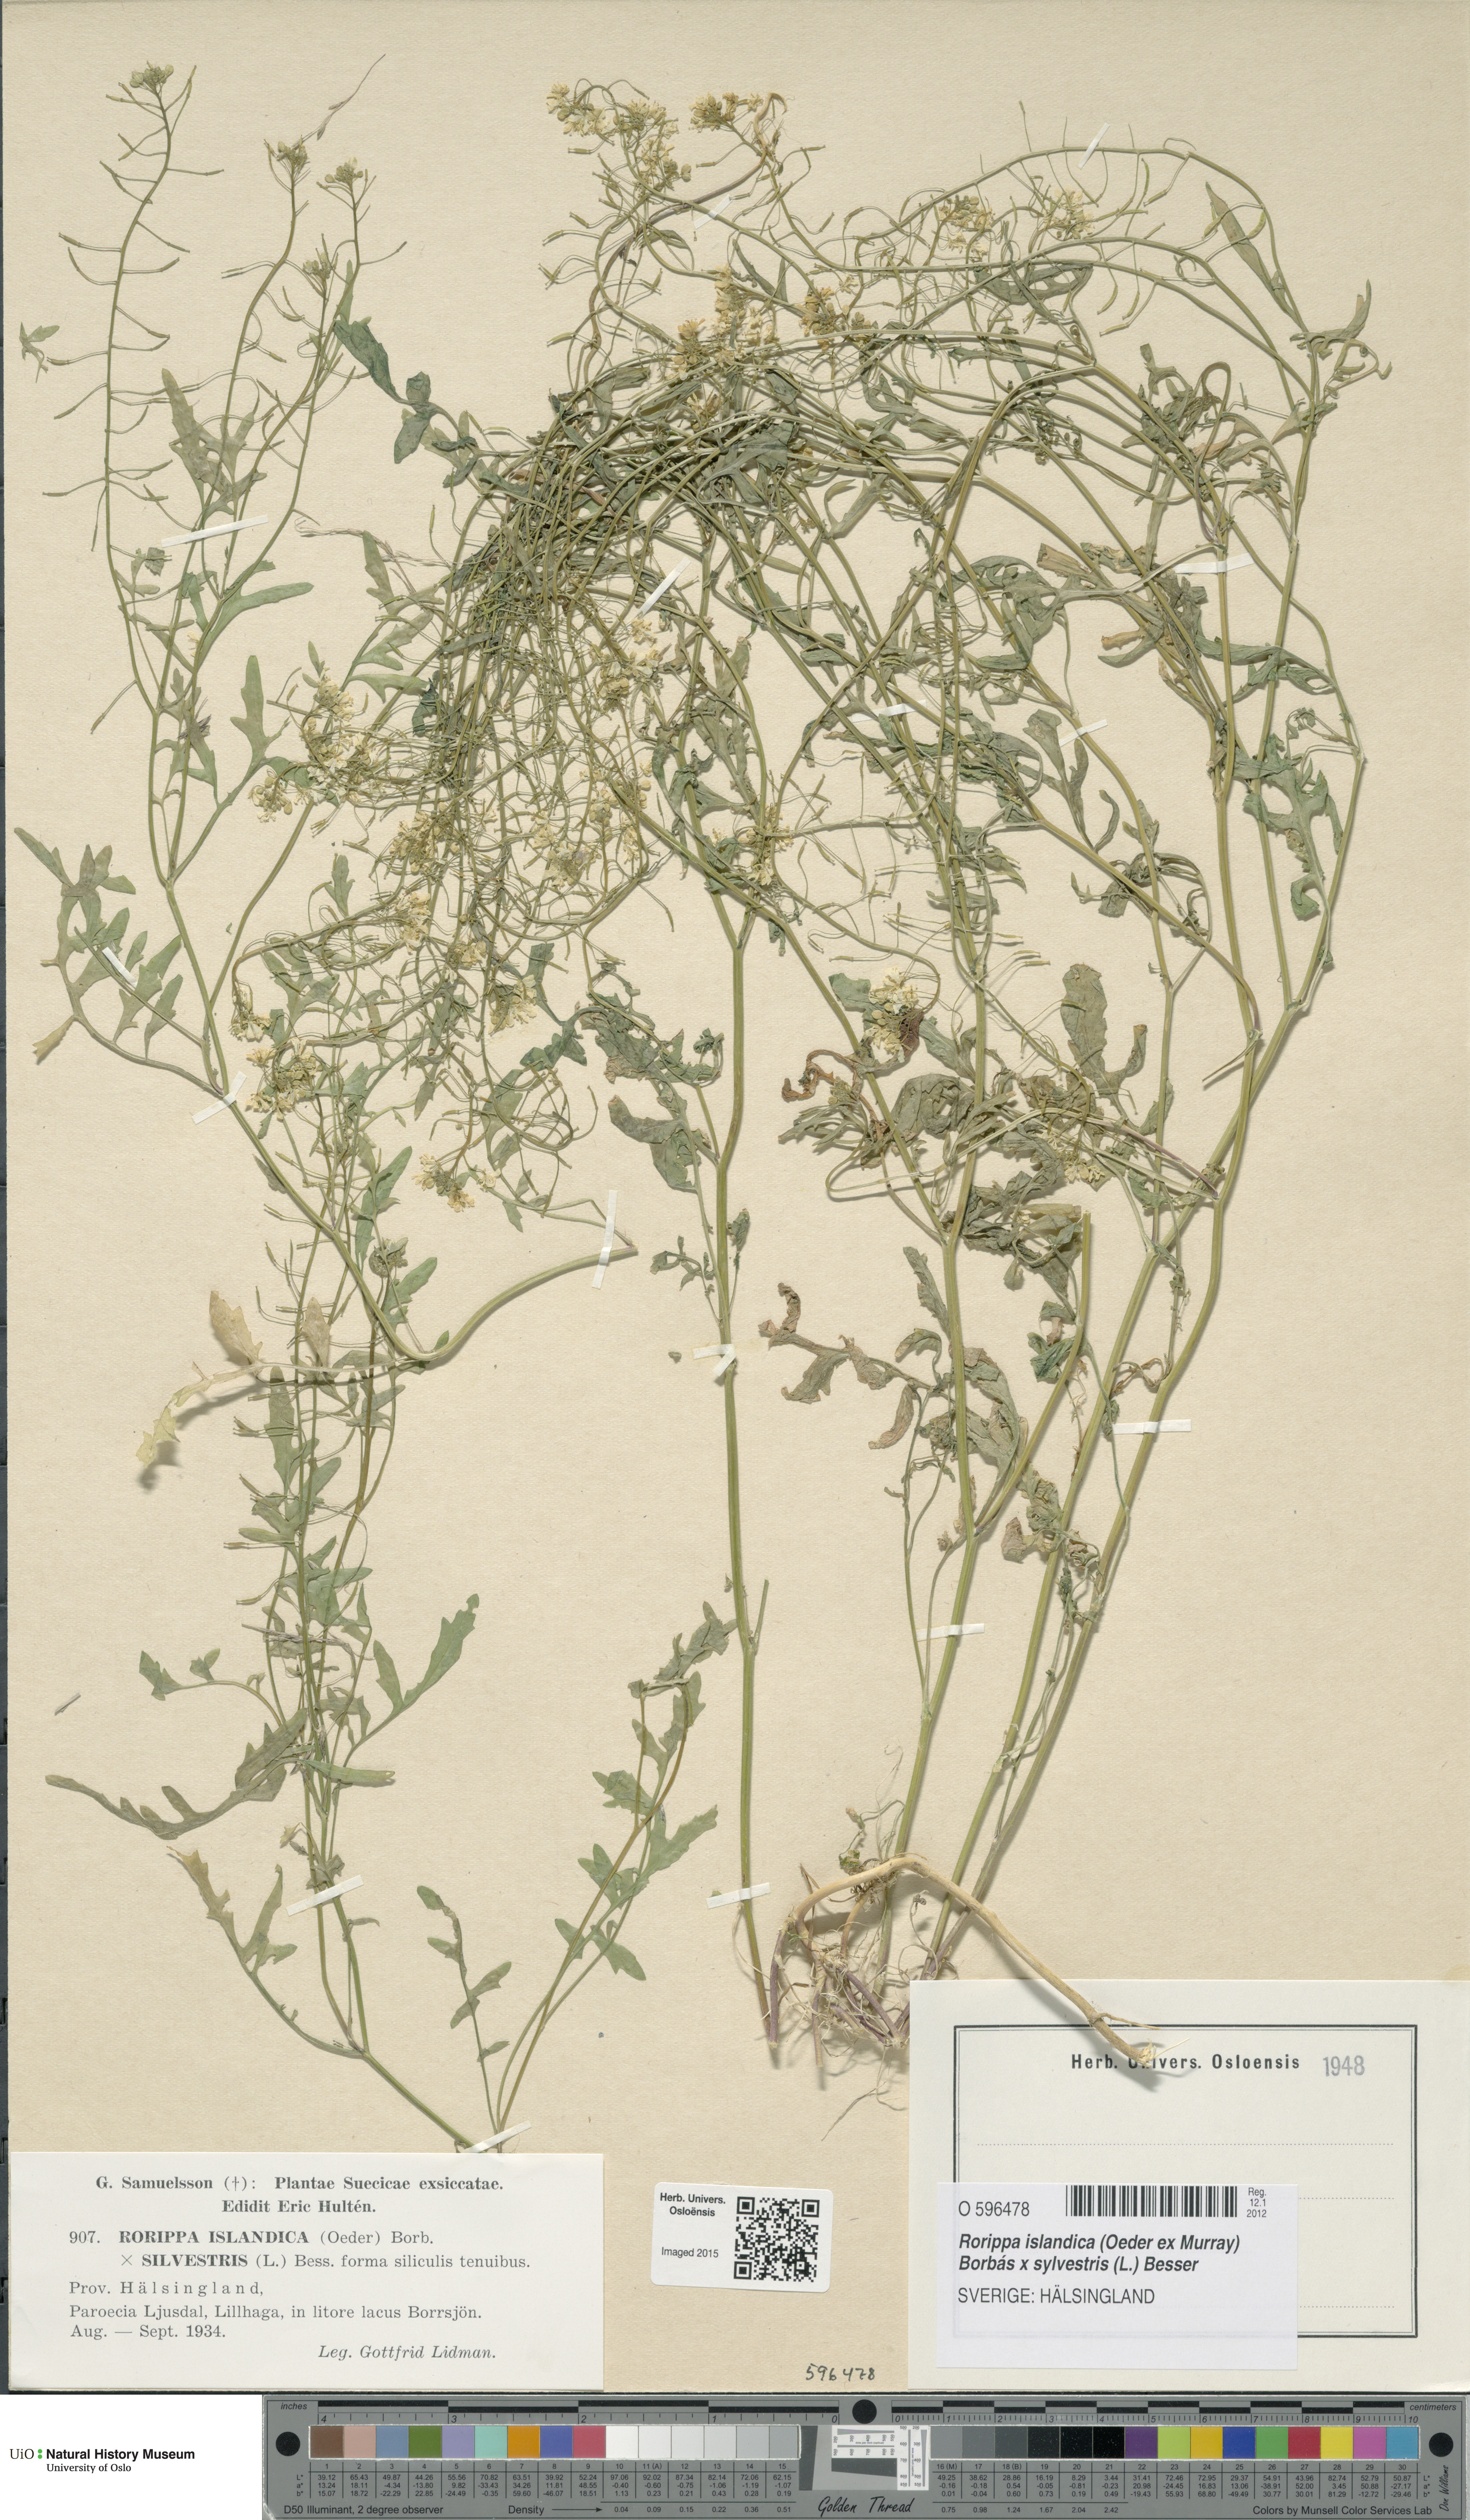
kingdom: Plantae
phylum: Tracheophyta
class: Magnoliopsida
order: Brassicales
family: Brassicaceae
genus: Rorippa
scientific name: Rorippa
